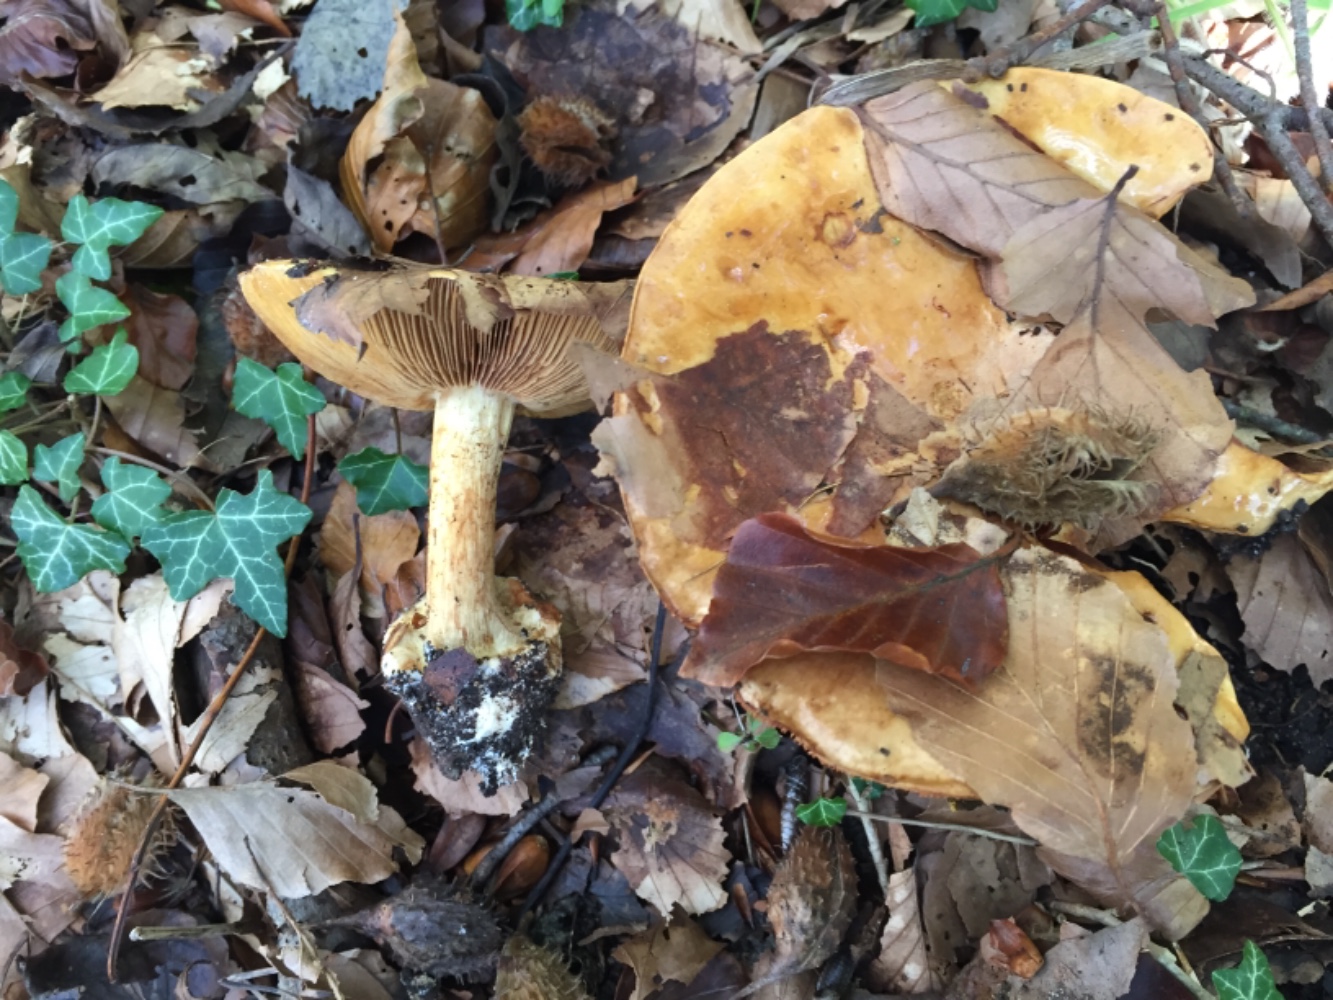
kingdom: Fungi
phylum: Basidiomycota
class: Agaricomycetes
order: Agaricales
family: Cortinariaceae
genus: Calonarius
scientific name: Calonarius humolens
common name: radise-slørhat
